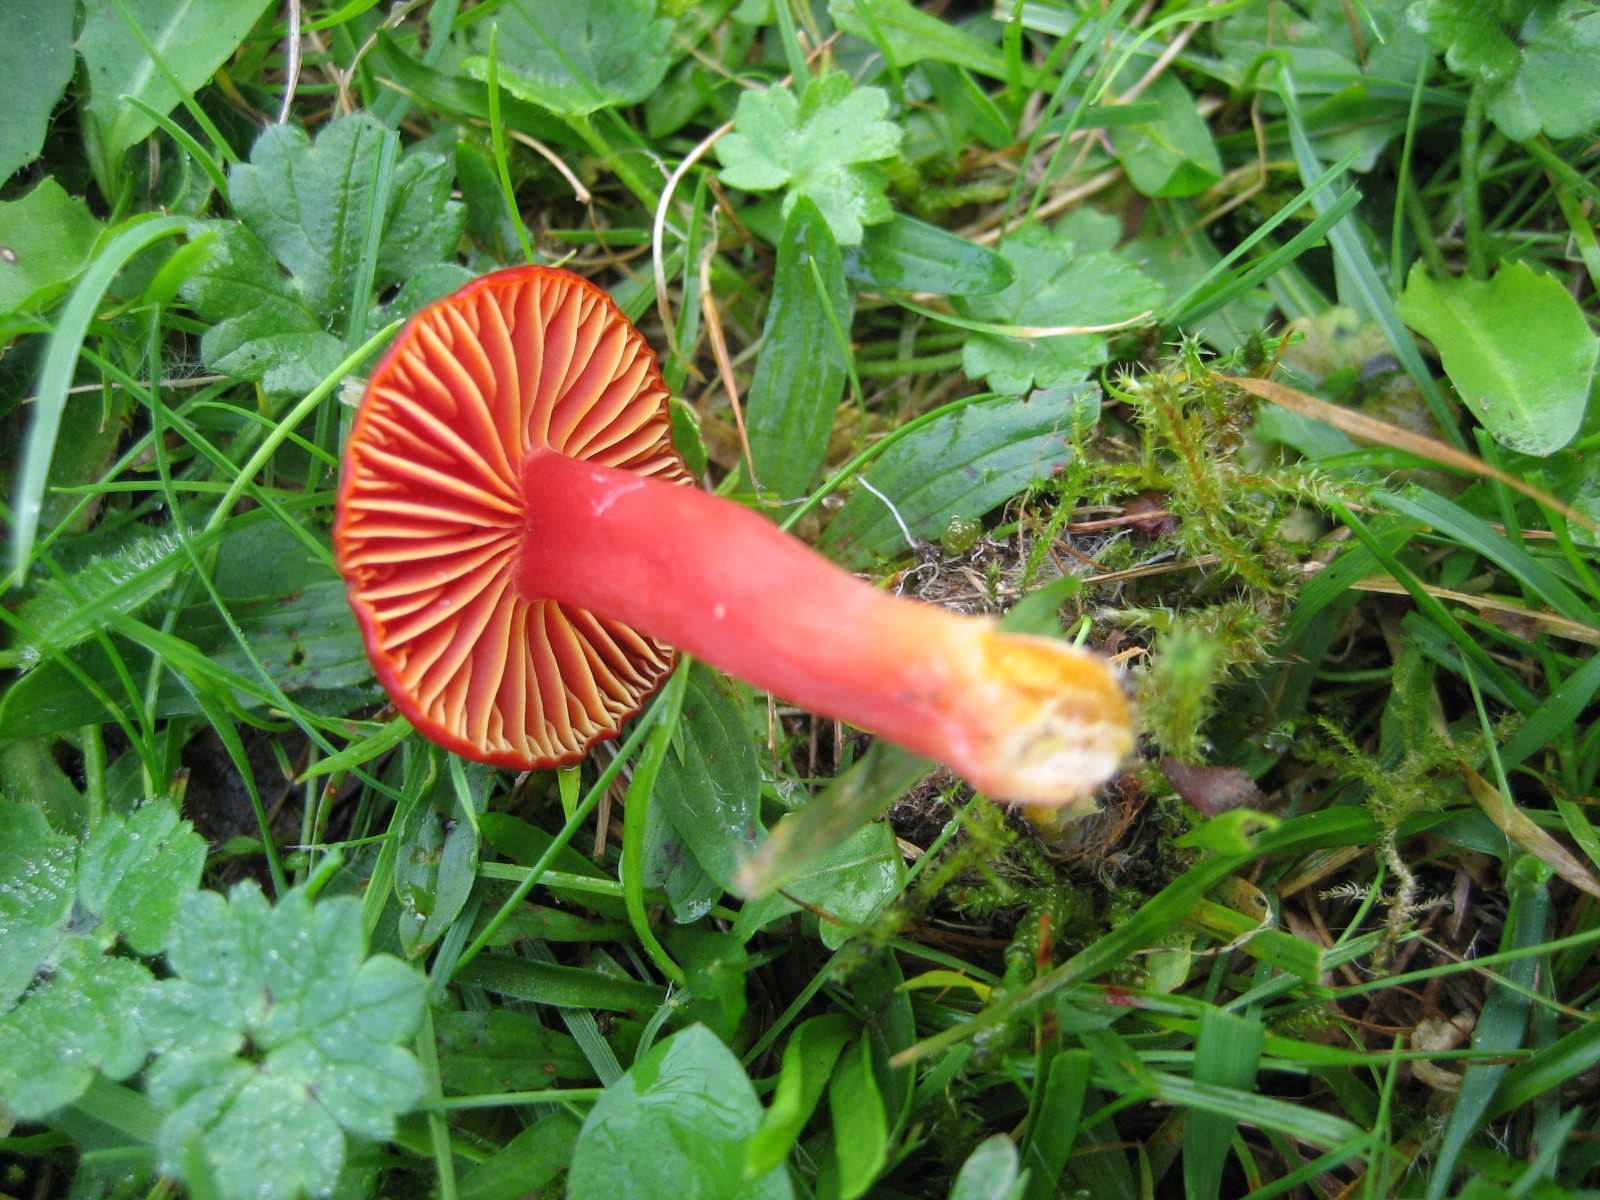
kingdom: Fungi
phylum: Basidiomycota
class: Agaricomycetes
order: Agaricales
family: Hygrophoraceae
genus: Hygrocybe
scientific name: Hygrocybe coccinea
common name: cinnober-vokshat
